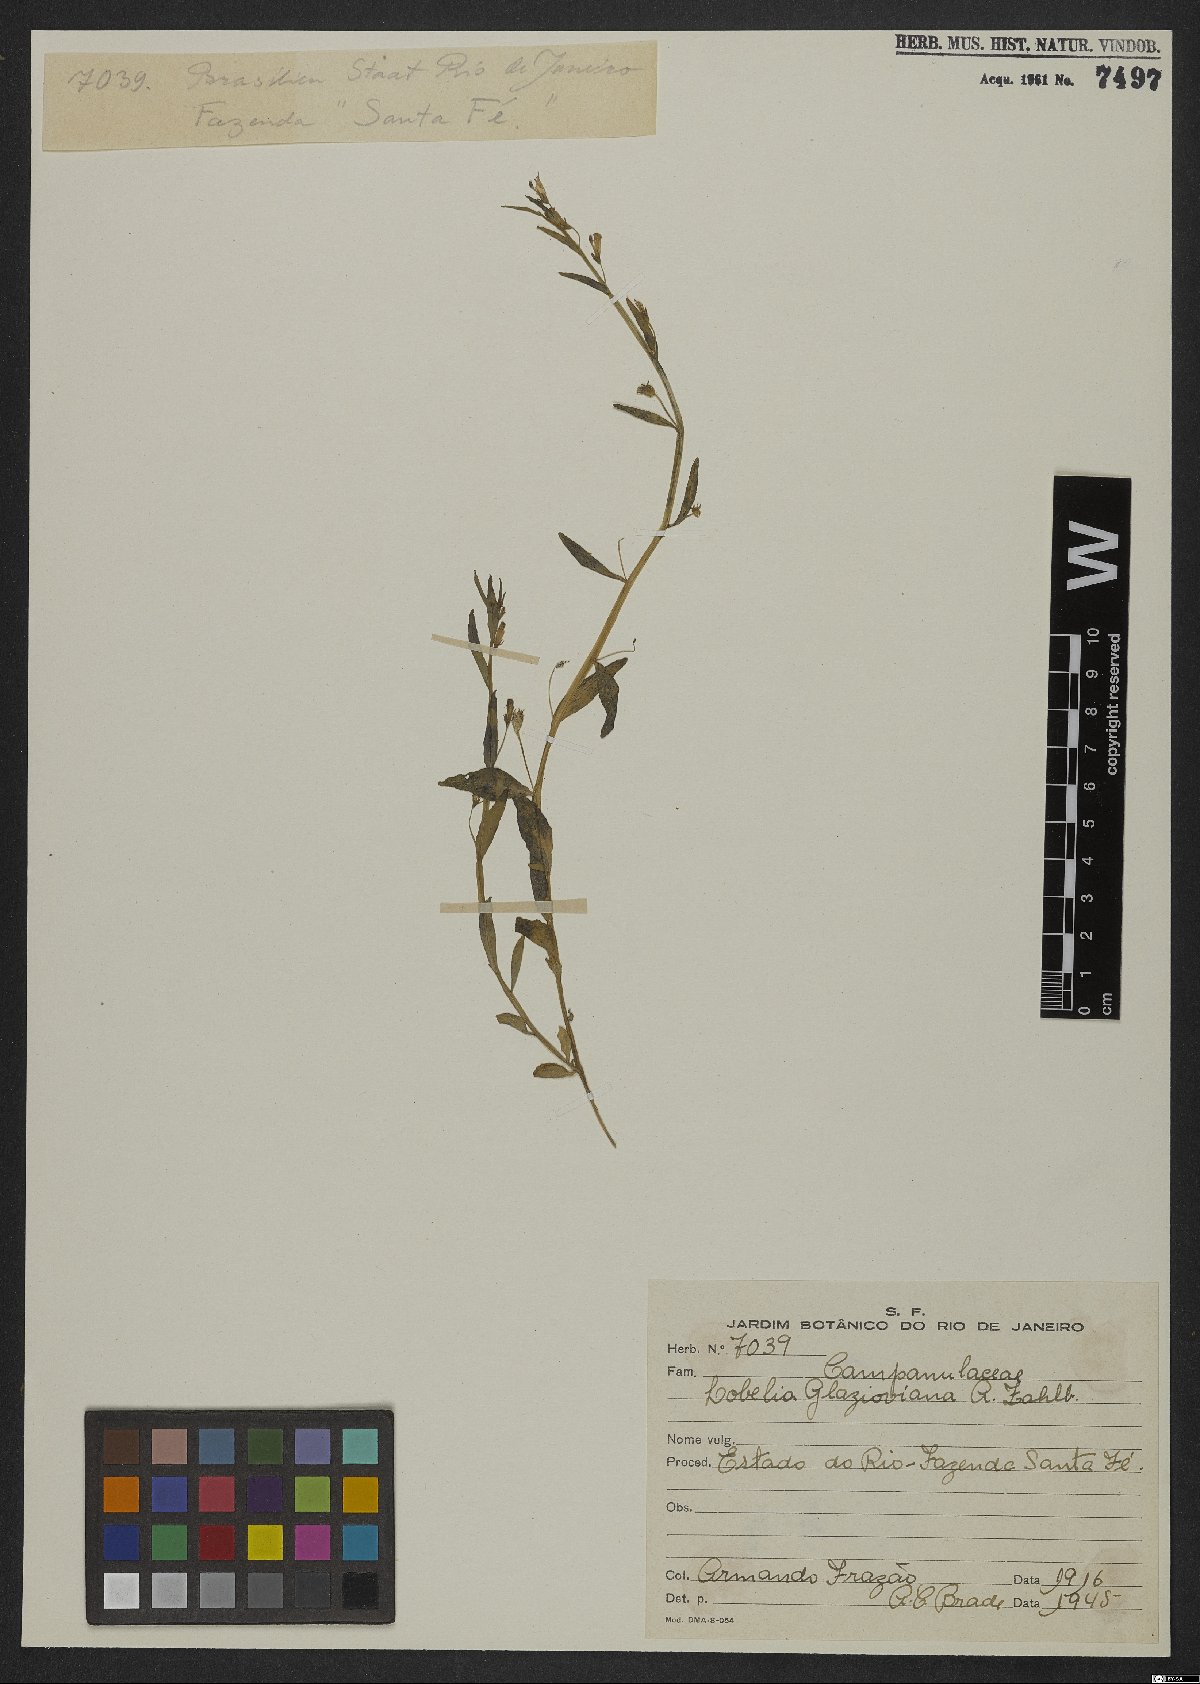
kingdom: Plantae
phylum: Tracheophyta
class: Magnoliopsida
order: Asterales
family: Campanulaceae
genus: Lobelia
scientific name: Lobelia glazioviana
